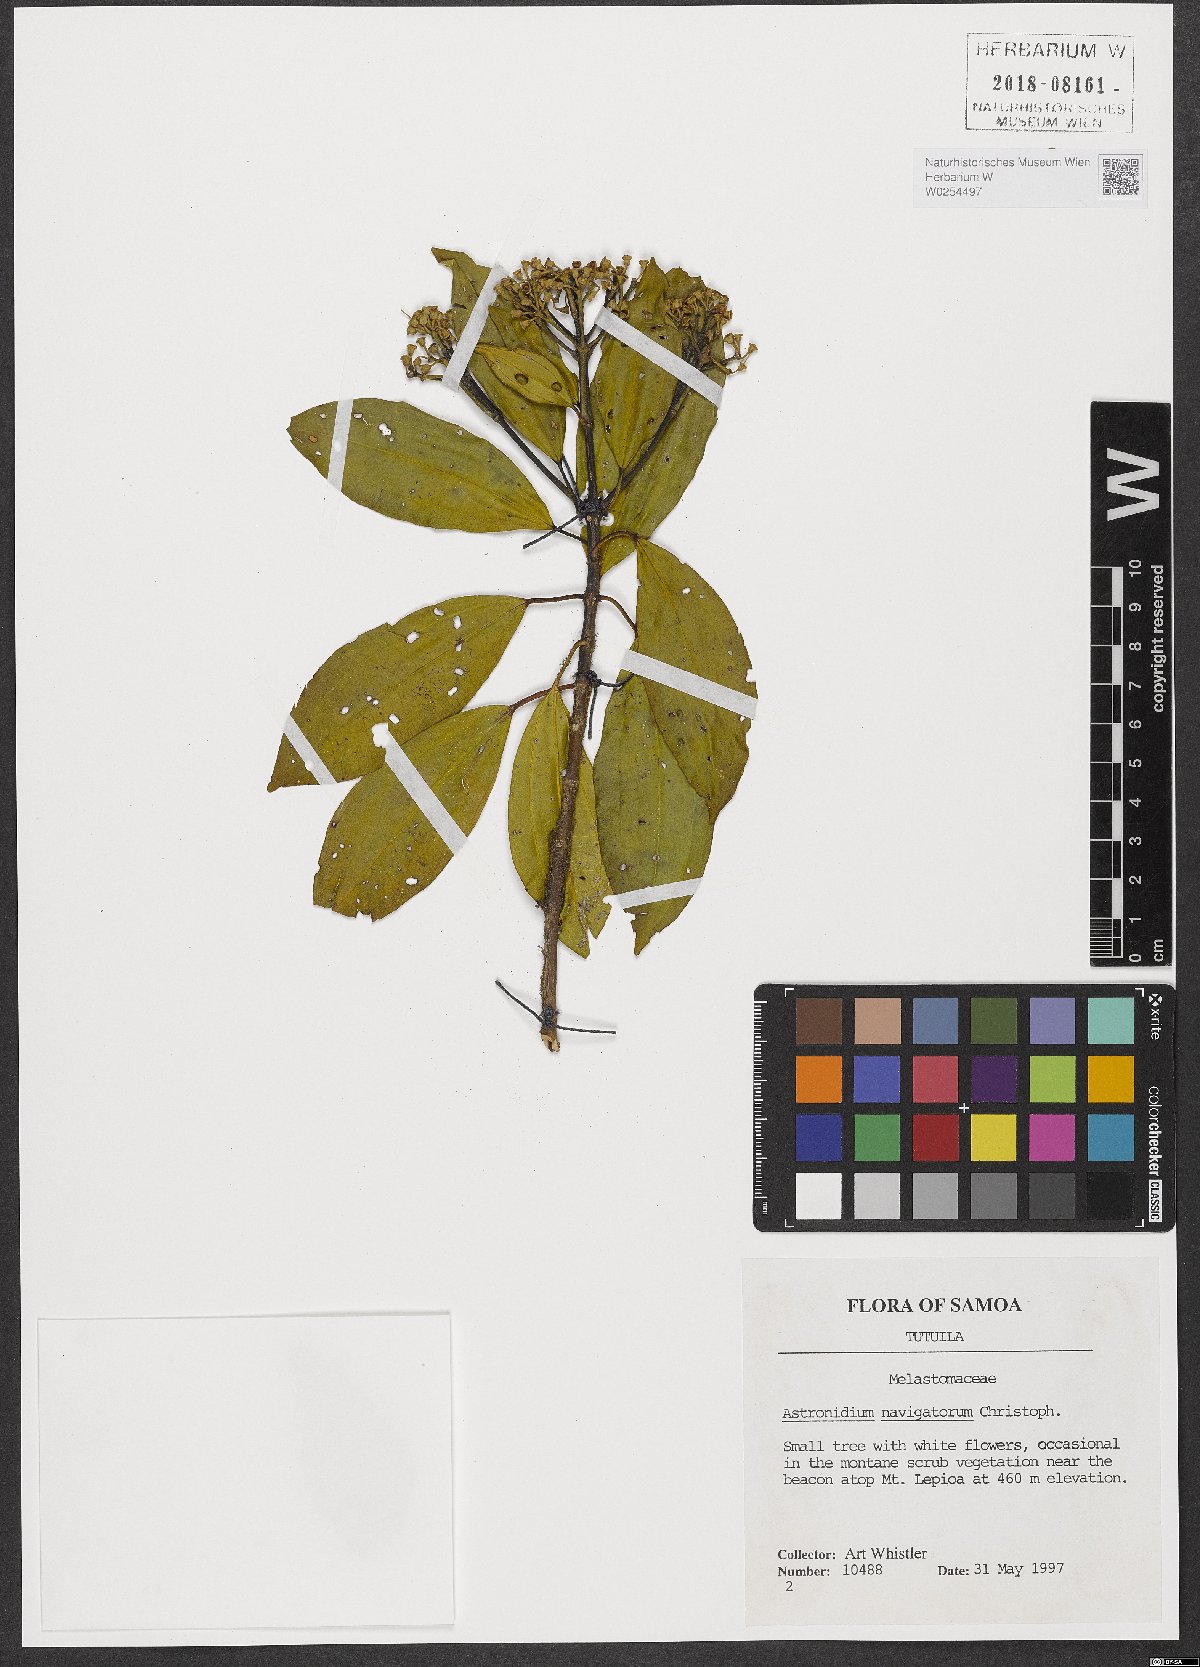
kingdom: Plantae
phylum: Tracheophyta
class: Magnoliopsida
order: Myrtales
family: Melastomataceae
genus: Astronidium
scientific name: Astronidium navigatorum
